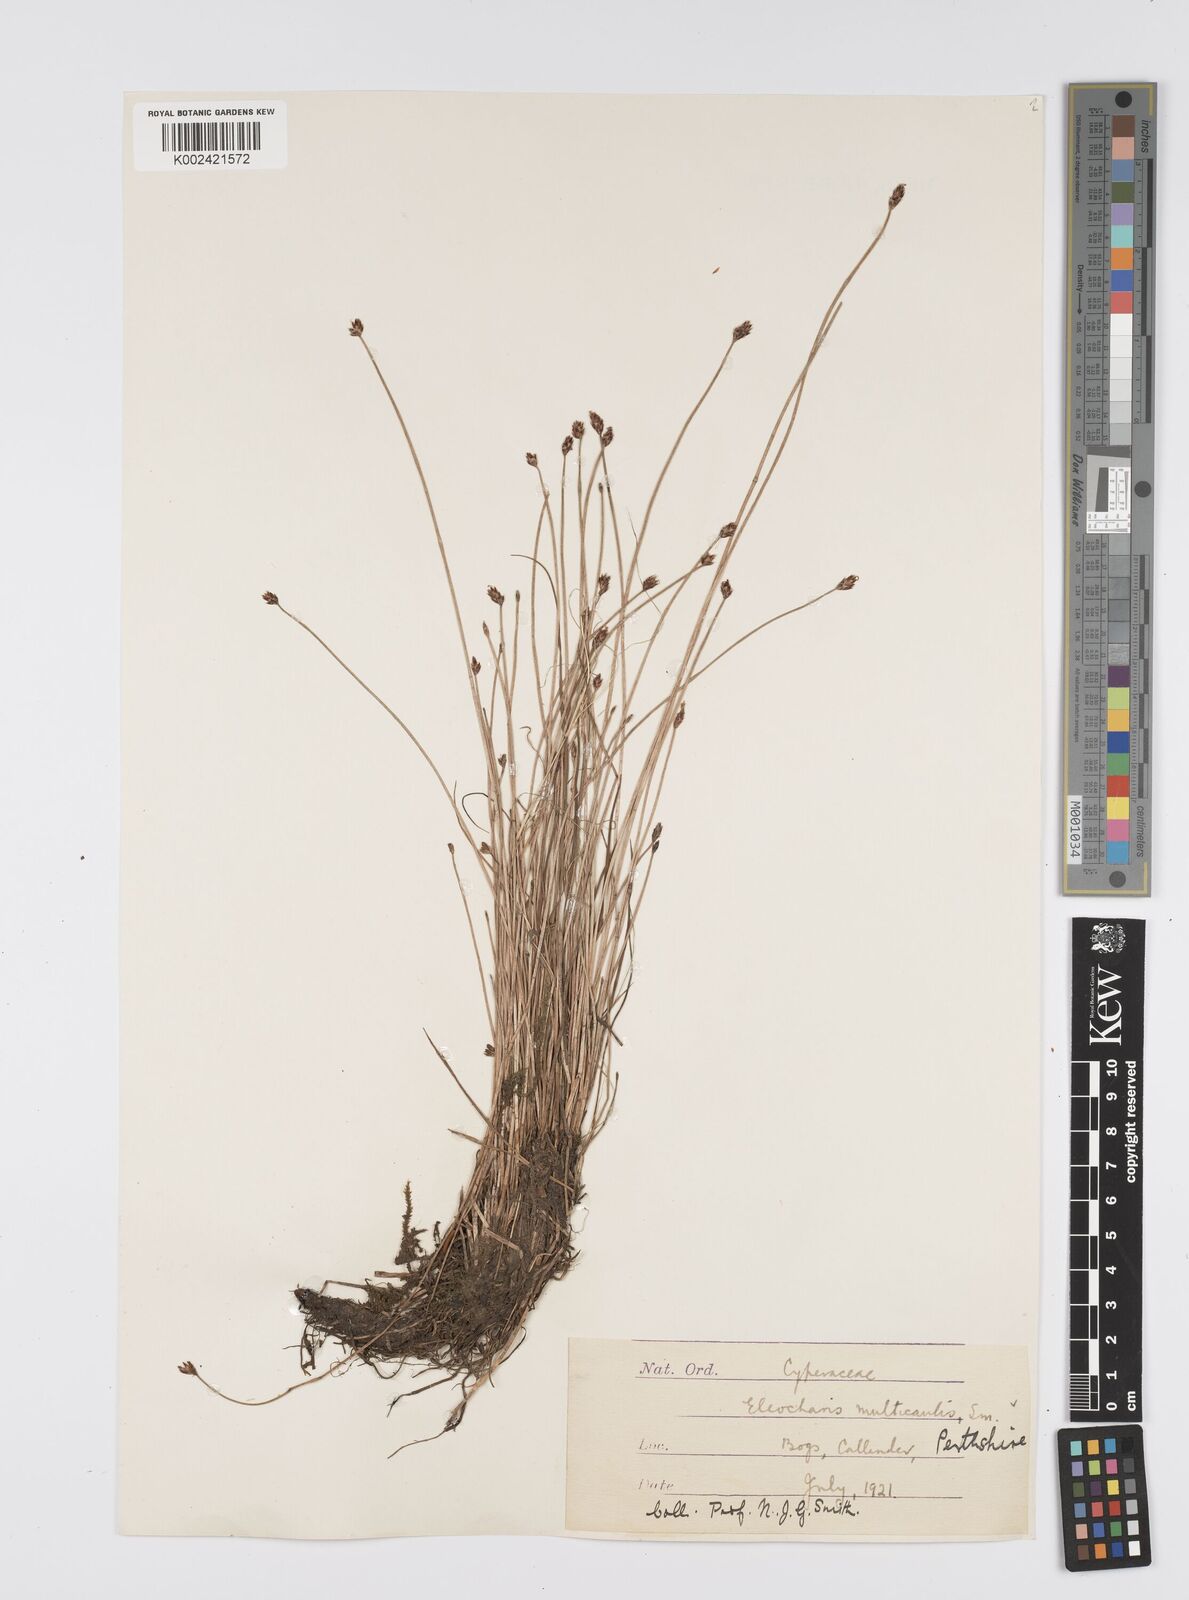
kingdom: Plantae
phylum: Tracheophyta
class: Liliopsida
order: Poales
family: Cyperaceae
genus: Eleocharis
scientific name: Eleocharis multicaulis
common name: Many-stalked spike-rush
